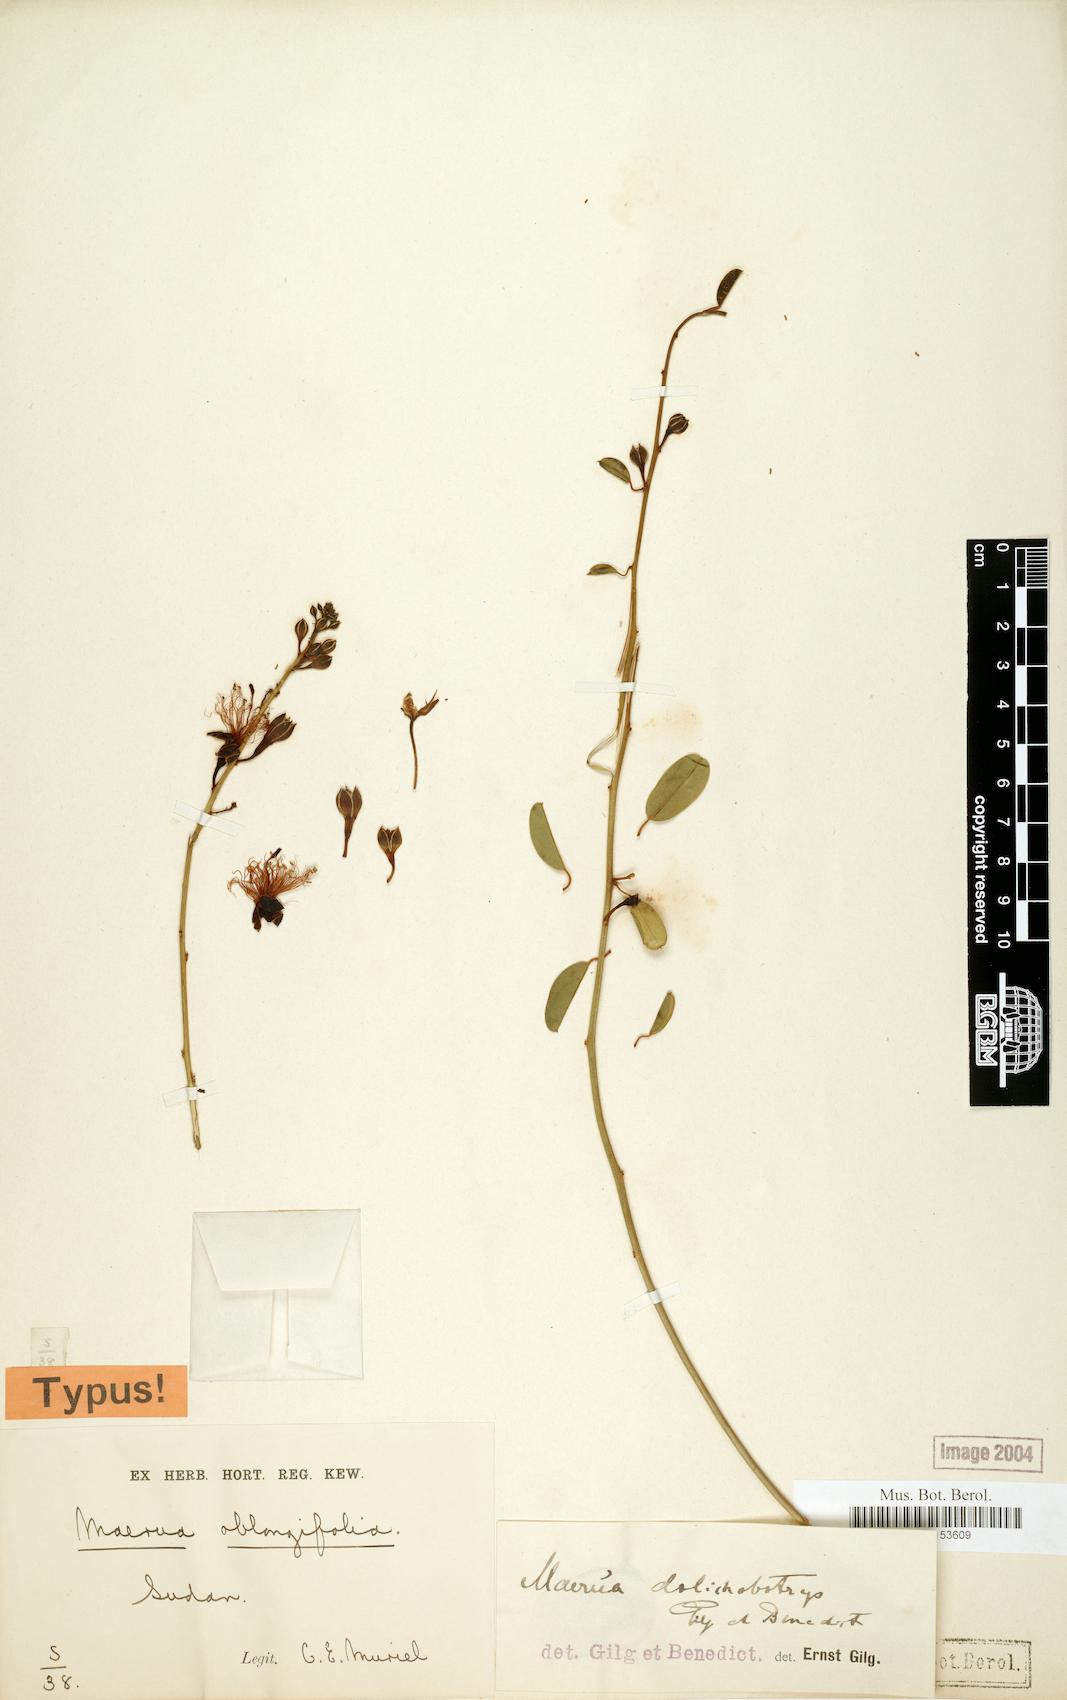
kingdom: Plantae
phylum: Tracheophyta
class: Magnoliopsida
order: Brassicales
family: Capparaceae
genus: Maerua
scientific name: Maerua oblongifolia
